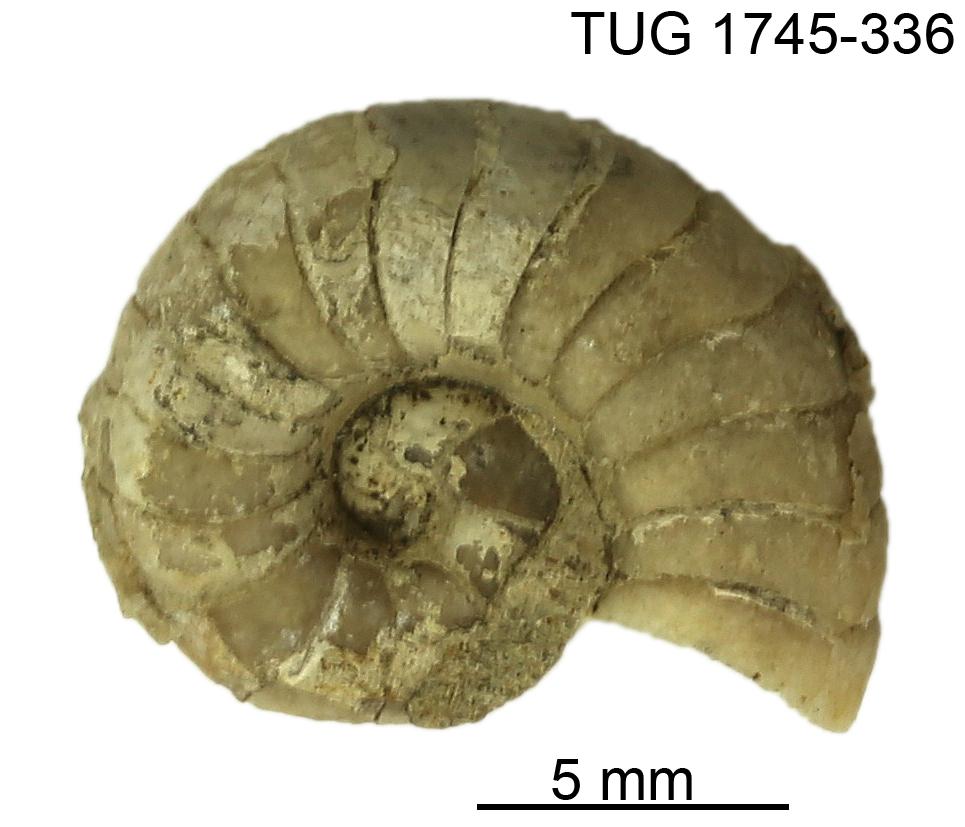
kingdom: Animalia
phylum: Mollusca
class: Cephalopoda
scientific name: Cephalopoda
